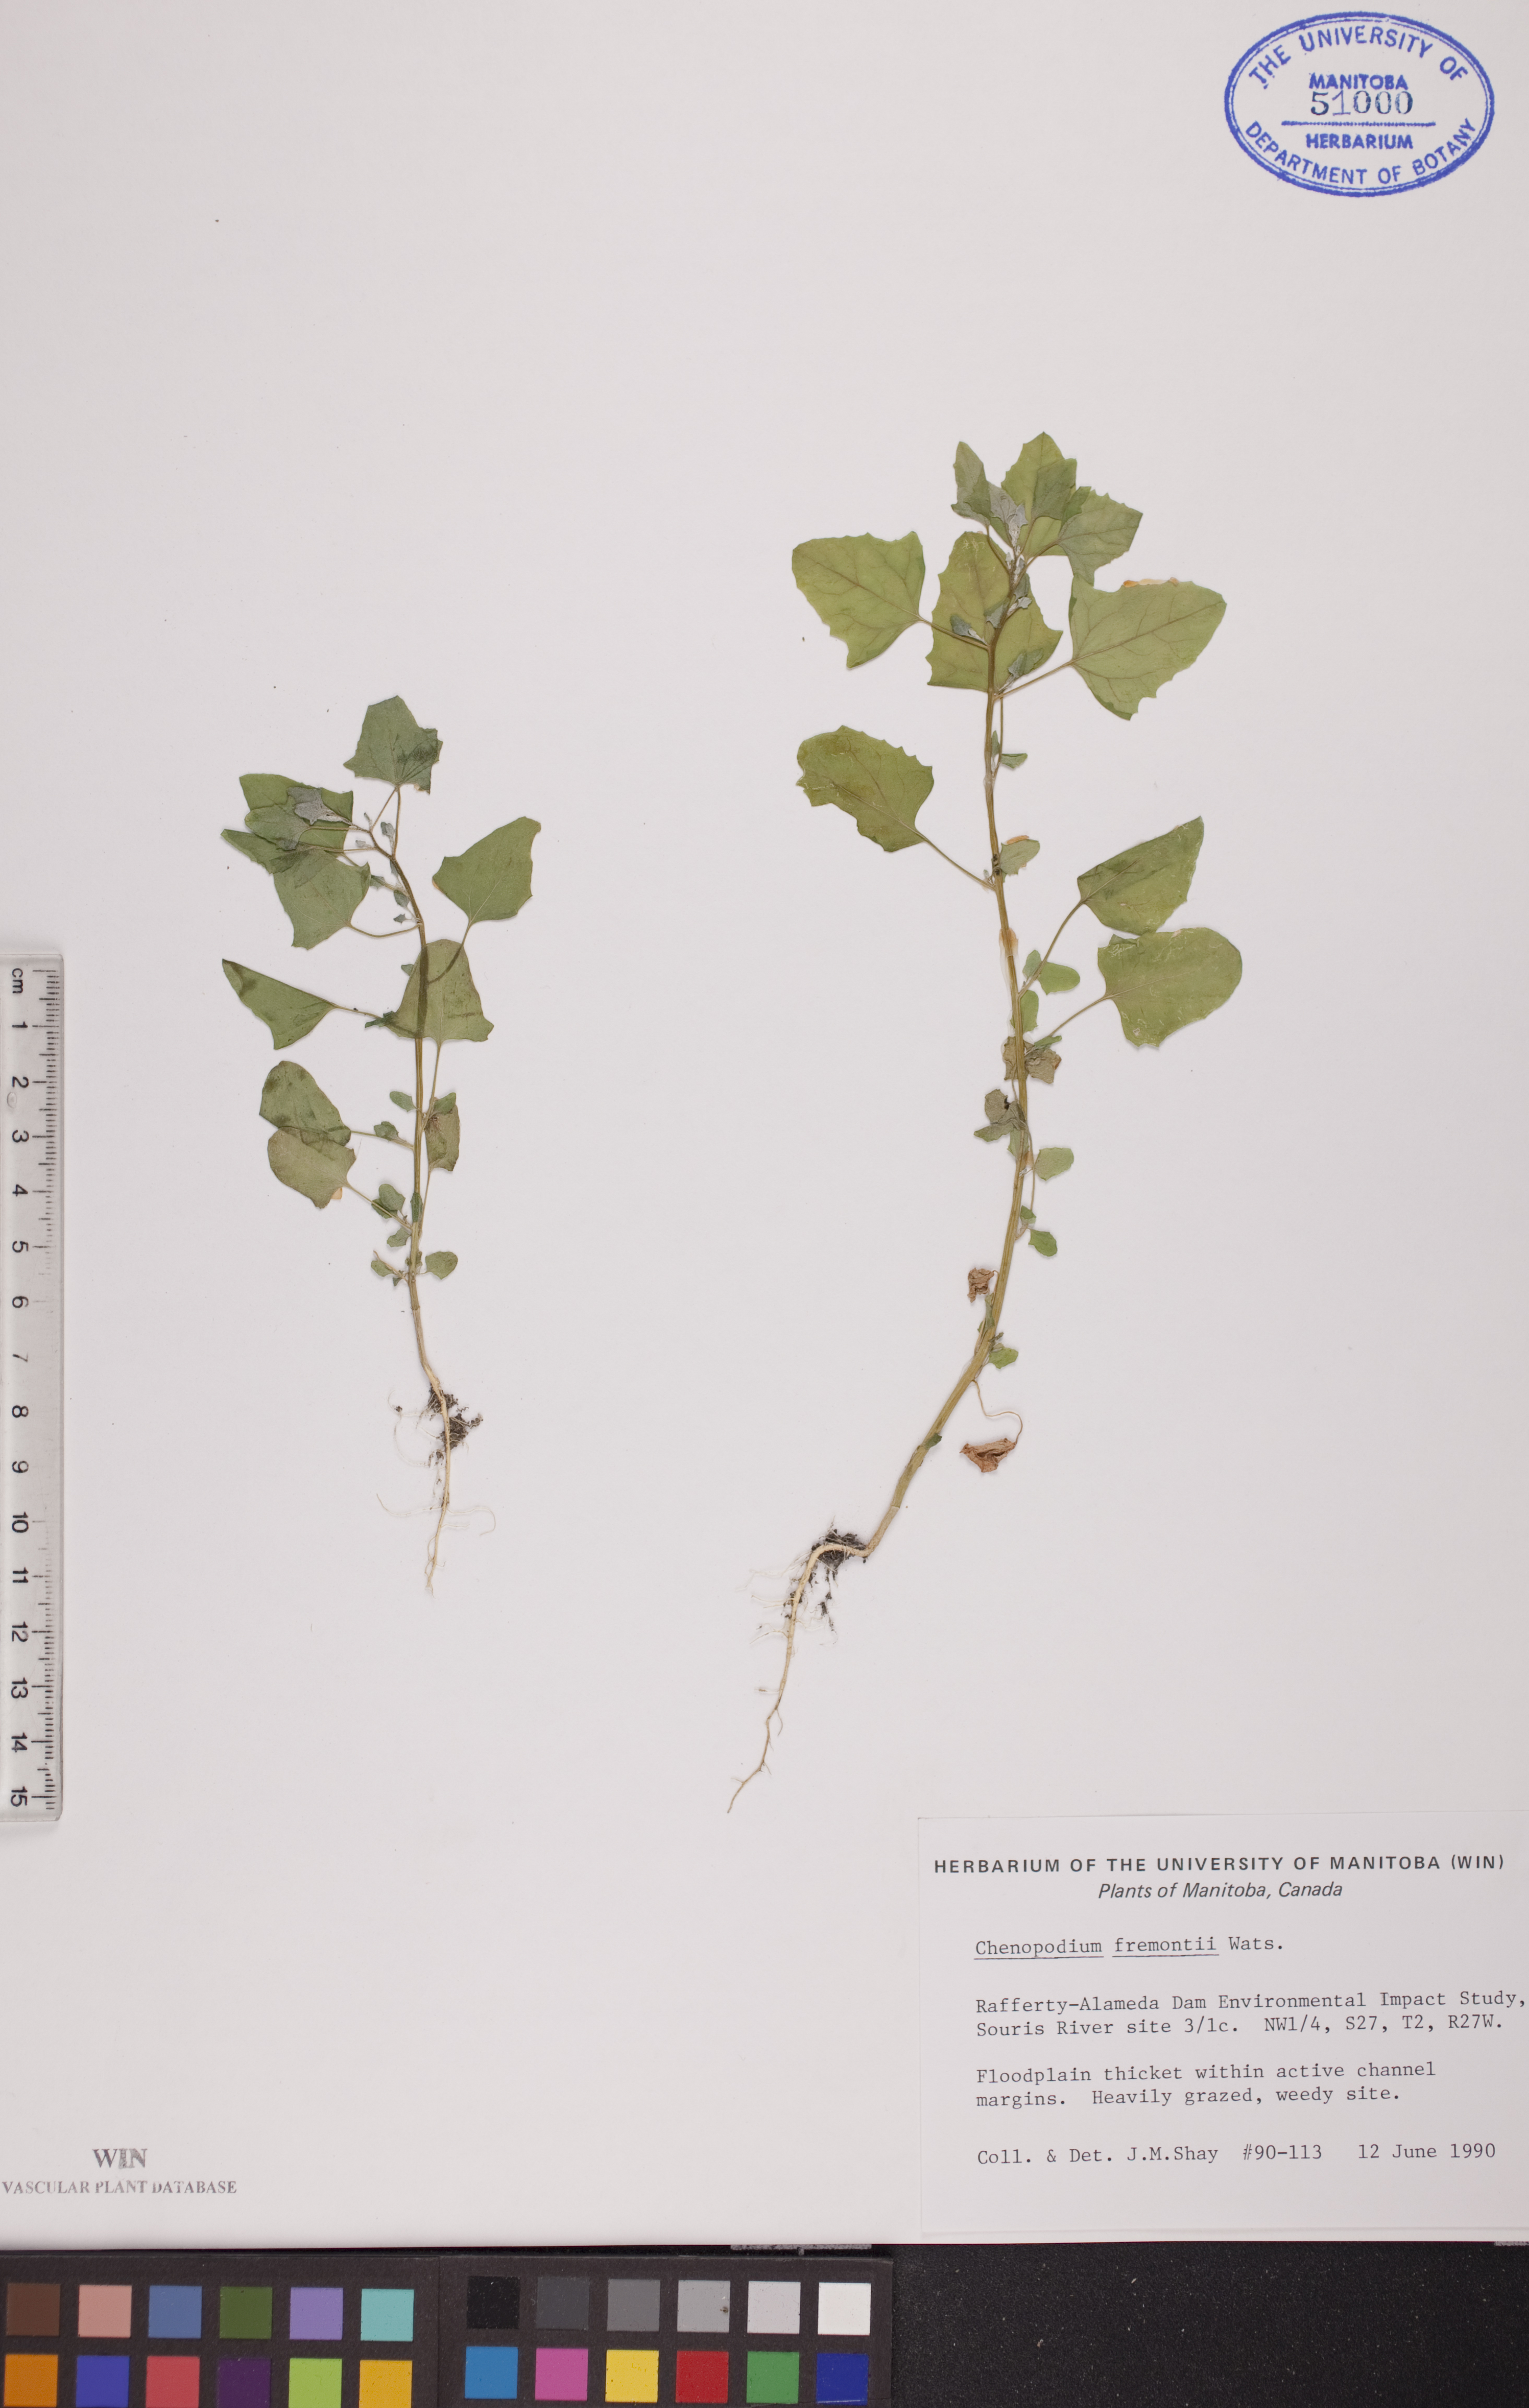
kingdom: Plantae
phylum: Tracheophyta
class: Magnoliopsida
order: Caryophyllales
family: Amaranthaceae
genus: Chenopodium
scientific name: Chenopodium fremontii
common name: Fremont's goosefoot
